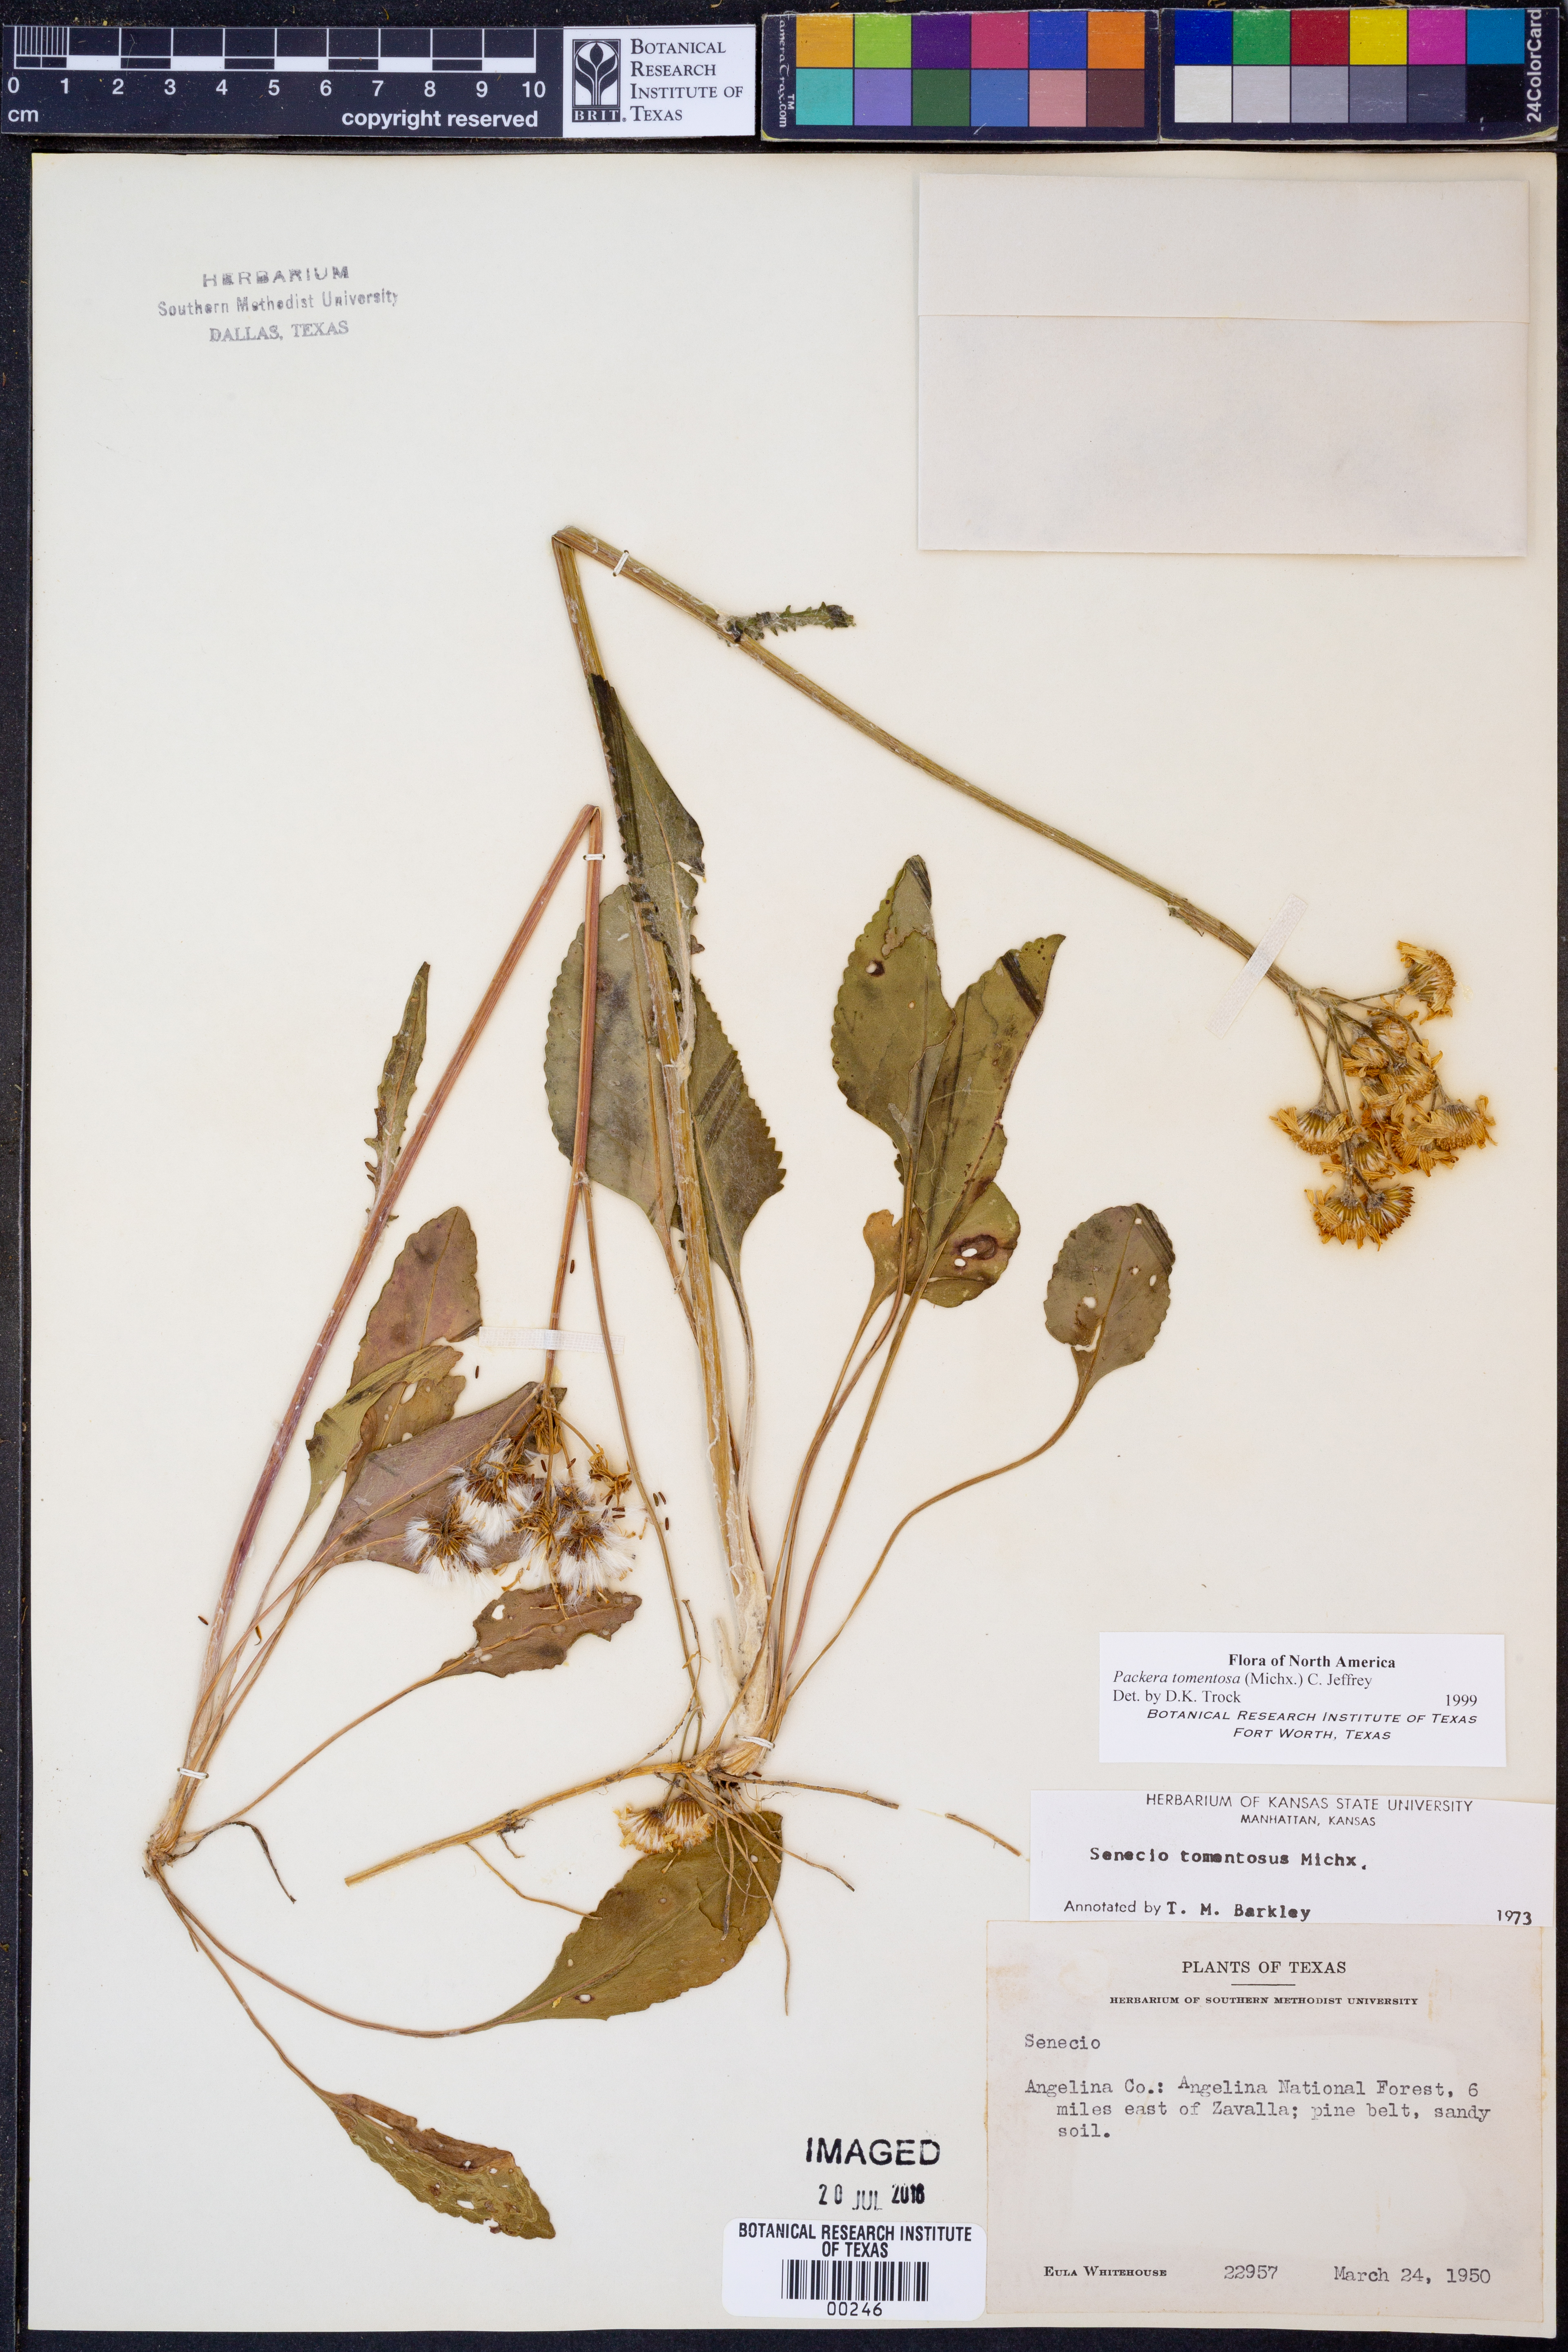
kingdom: Plantae
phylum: Tracheophyta
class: Magnoliopsida
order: Asterales
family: Asteraceae
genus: Packera
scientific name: Packera dubia
